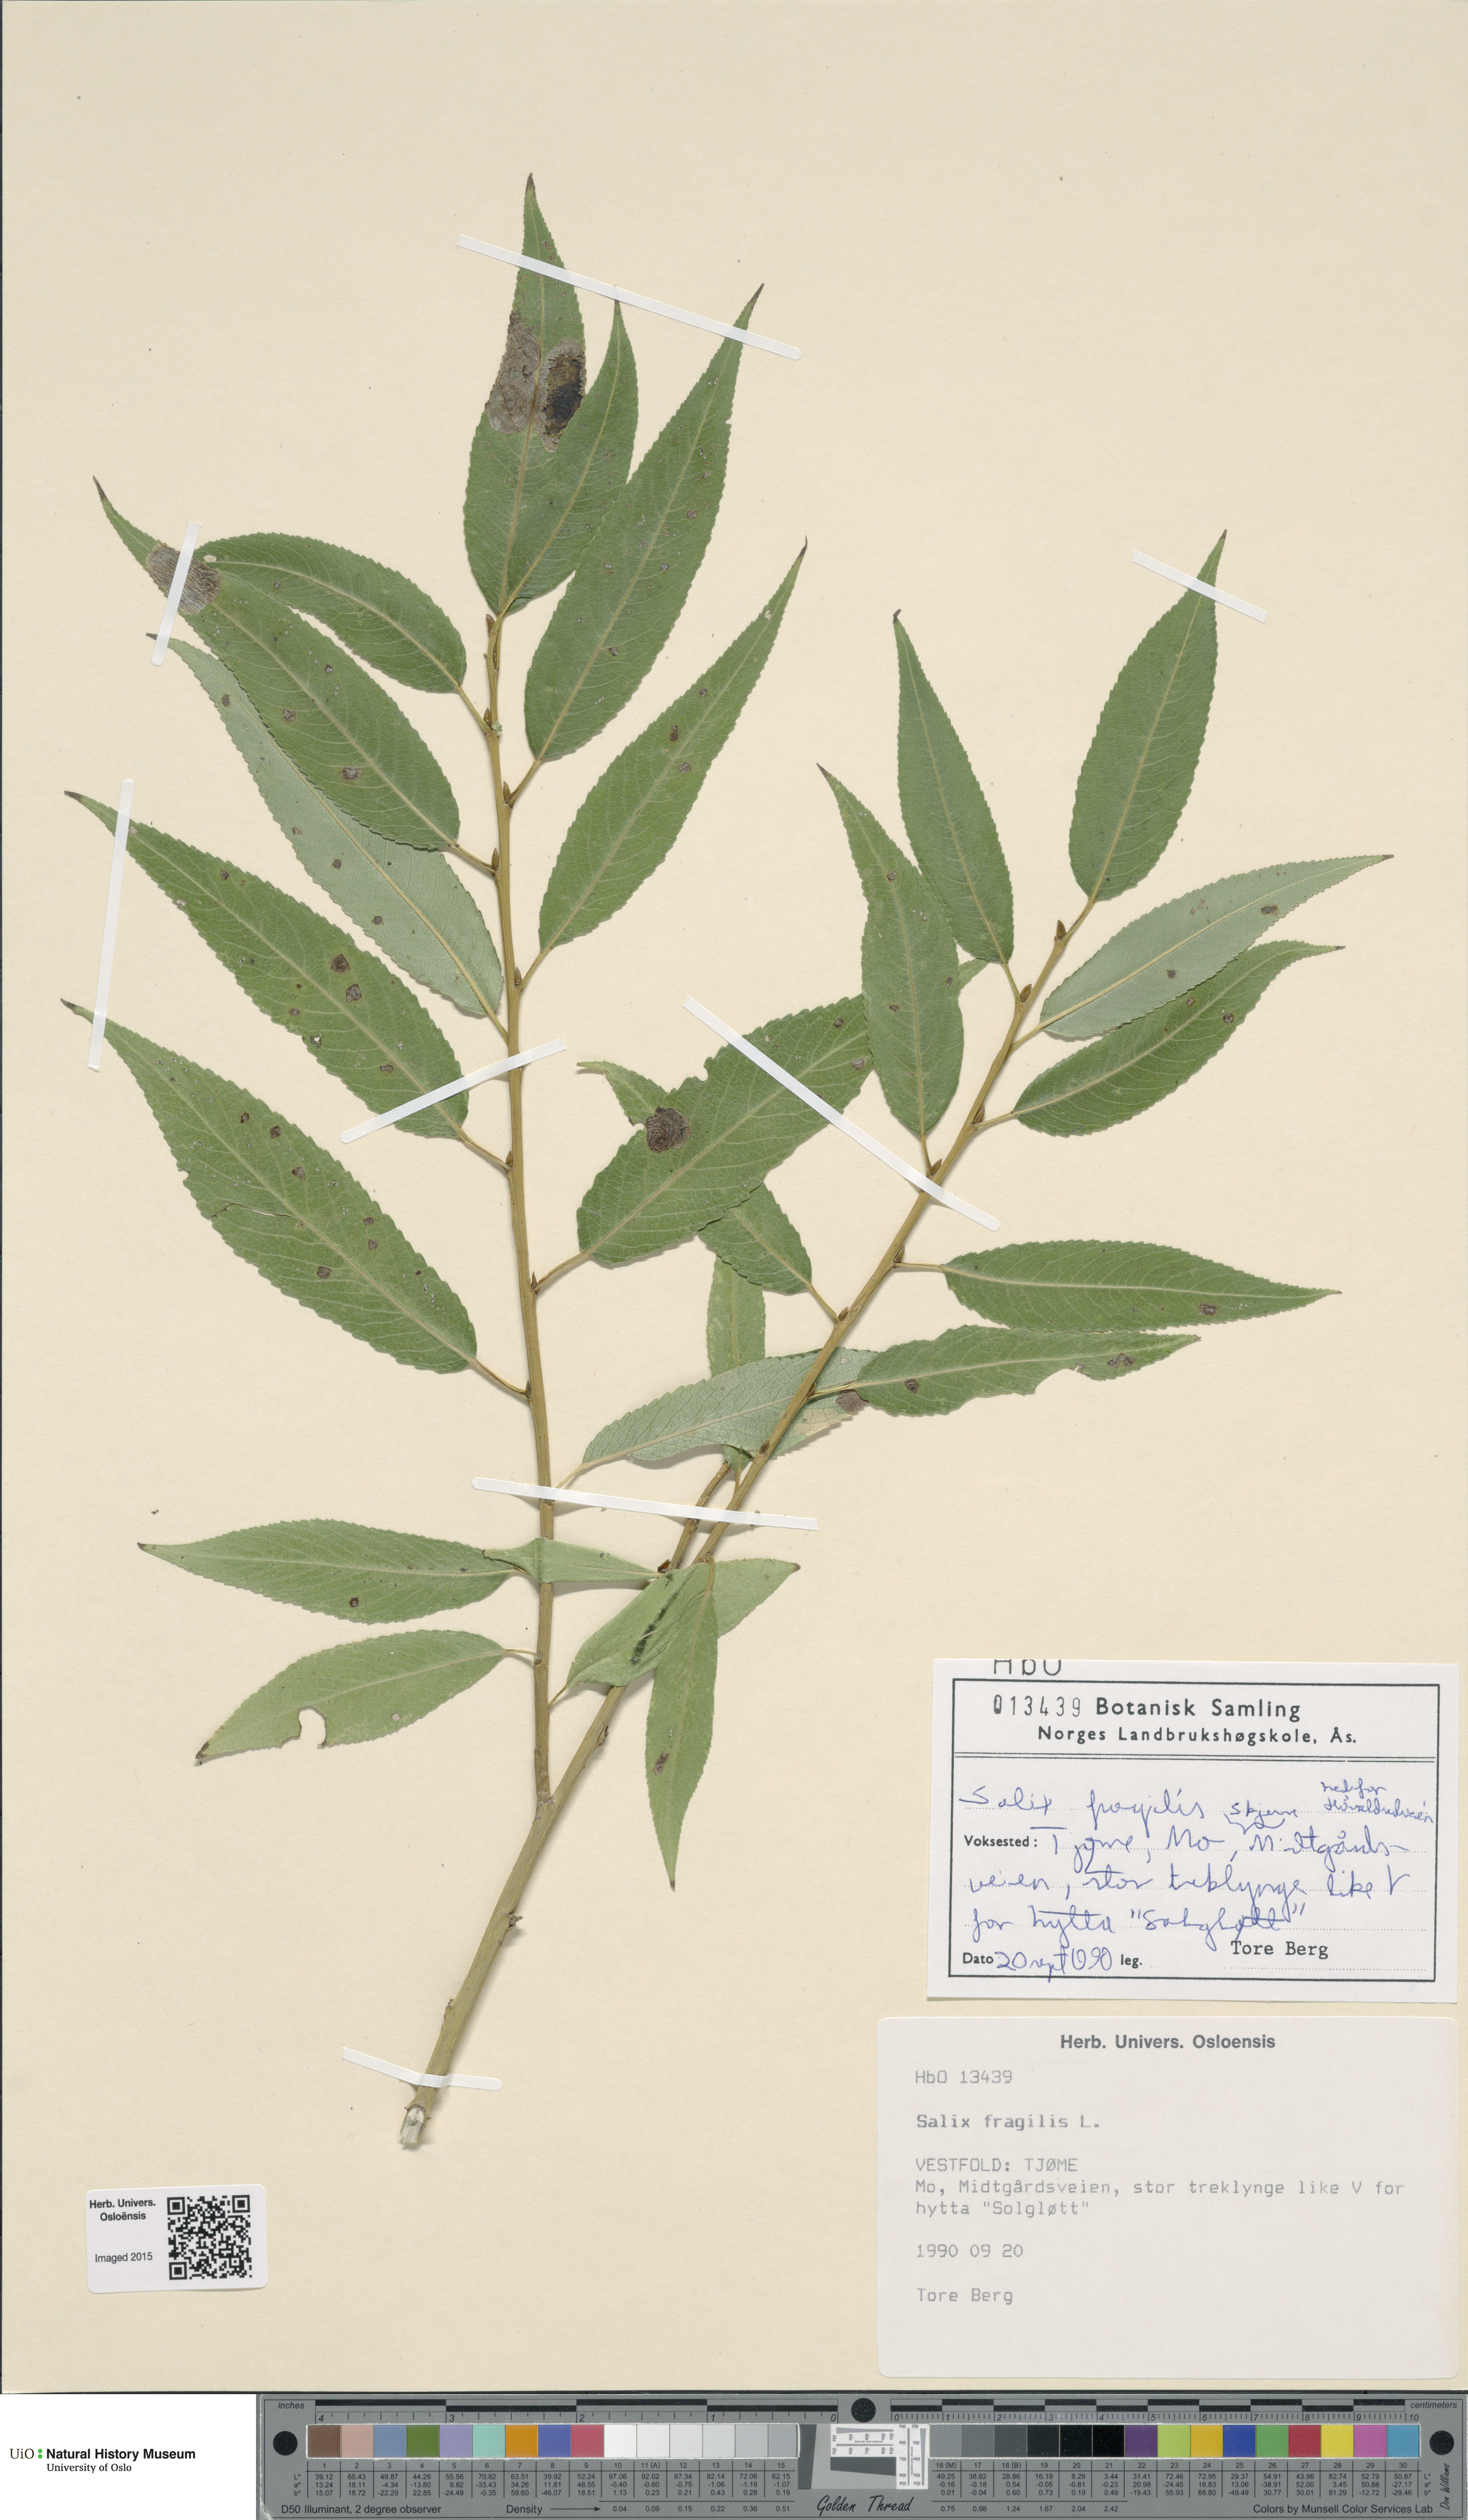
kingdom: Plantae
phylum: Tracheophyta
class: Magnoliopsida
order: Malpighiales
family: Salicaceae
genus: Salix
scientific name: Salix alba
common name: White willow
